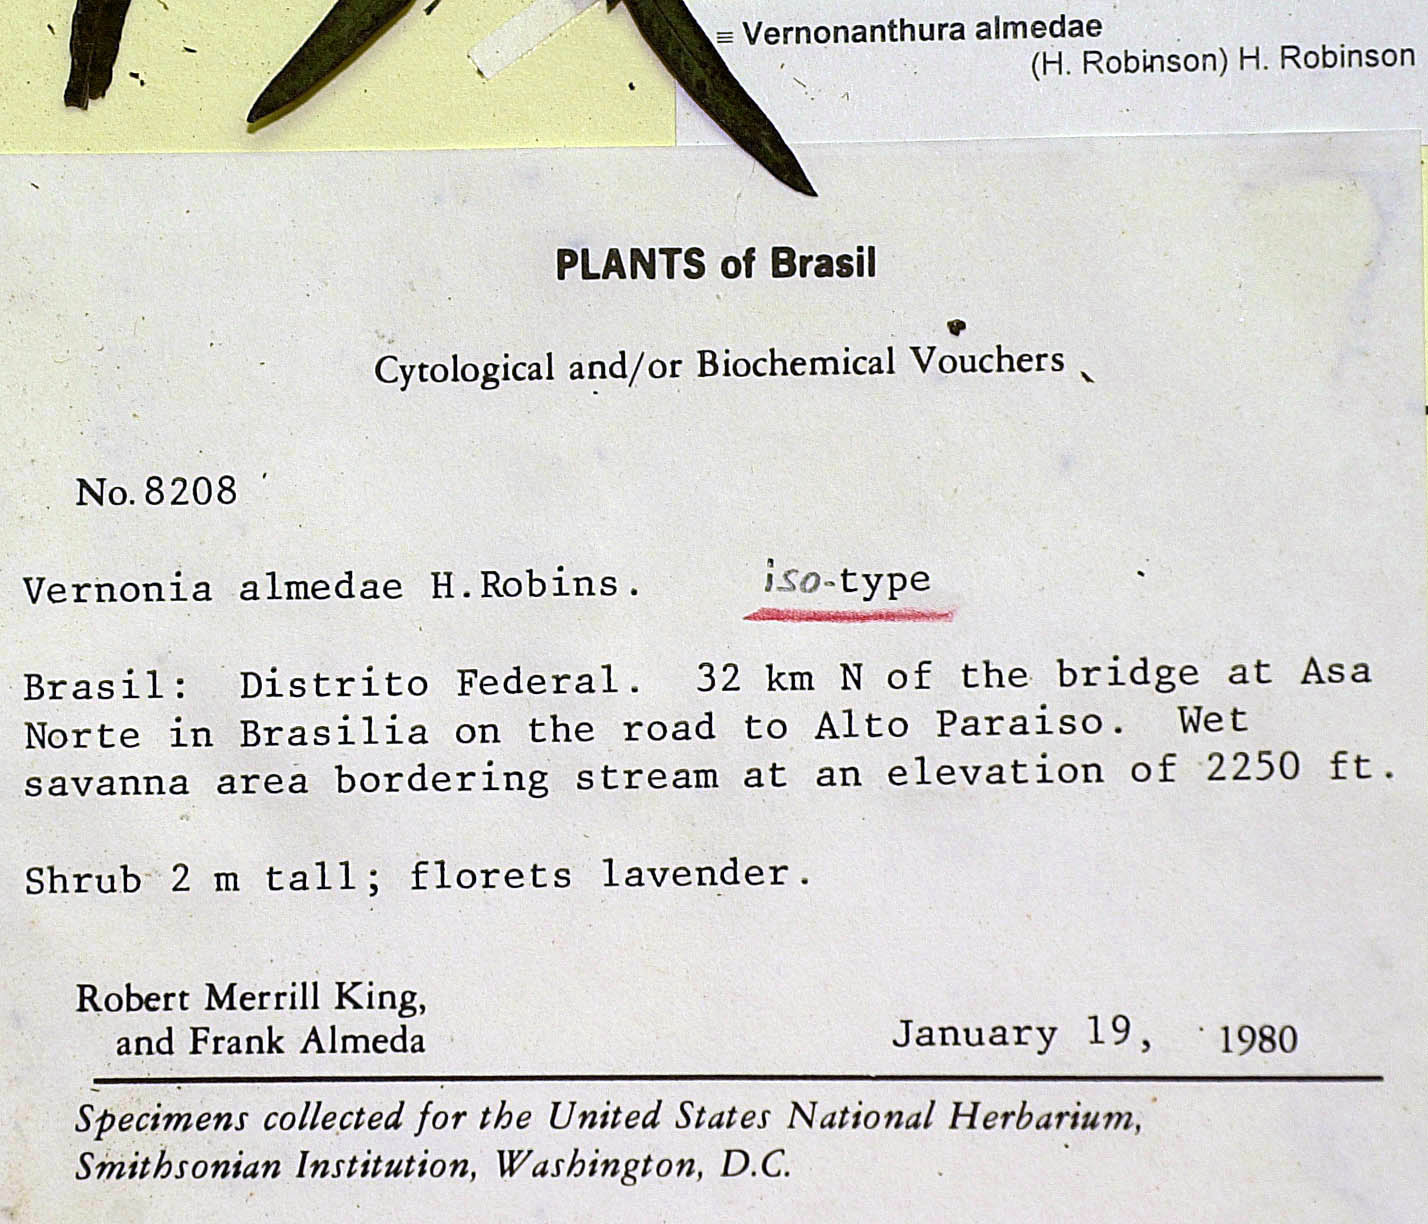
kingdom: Plantae
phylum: Tracheophyta
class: Magnoliopsida
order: Asterales
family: Asteraceae
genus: Vernonanthura
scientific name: Vernonanthura almedae
